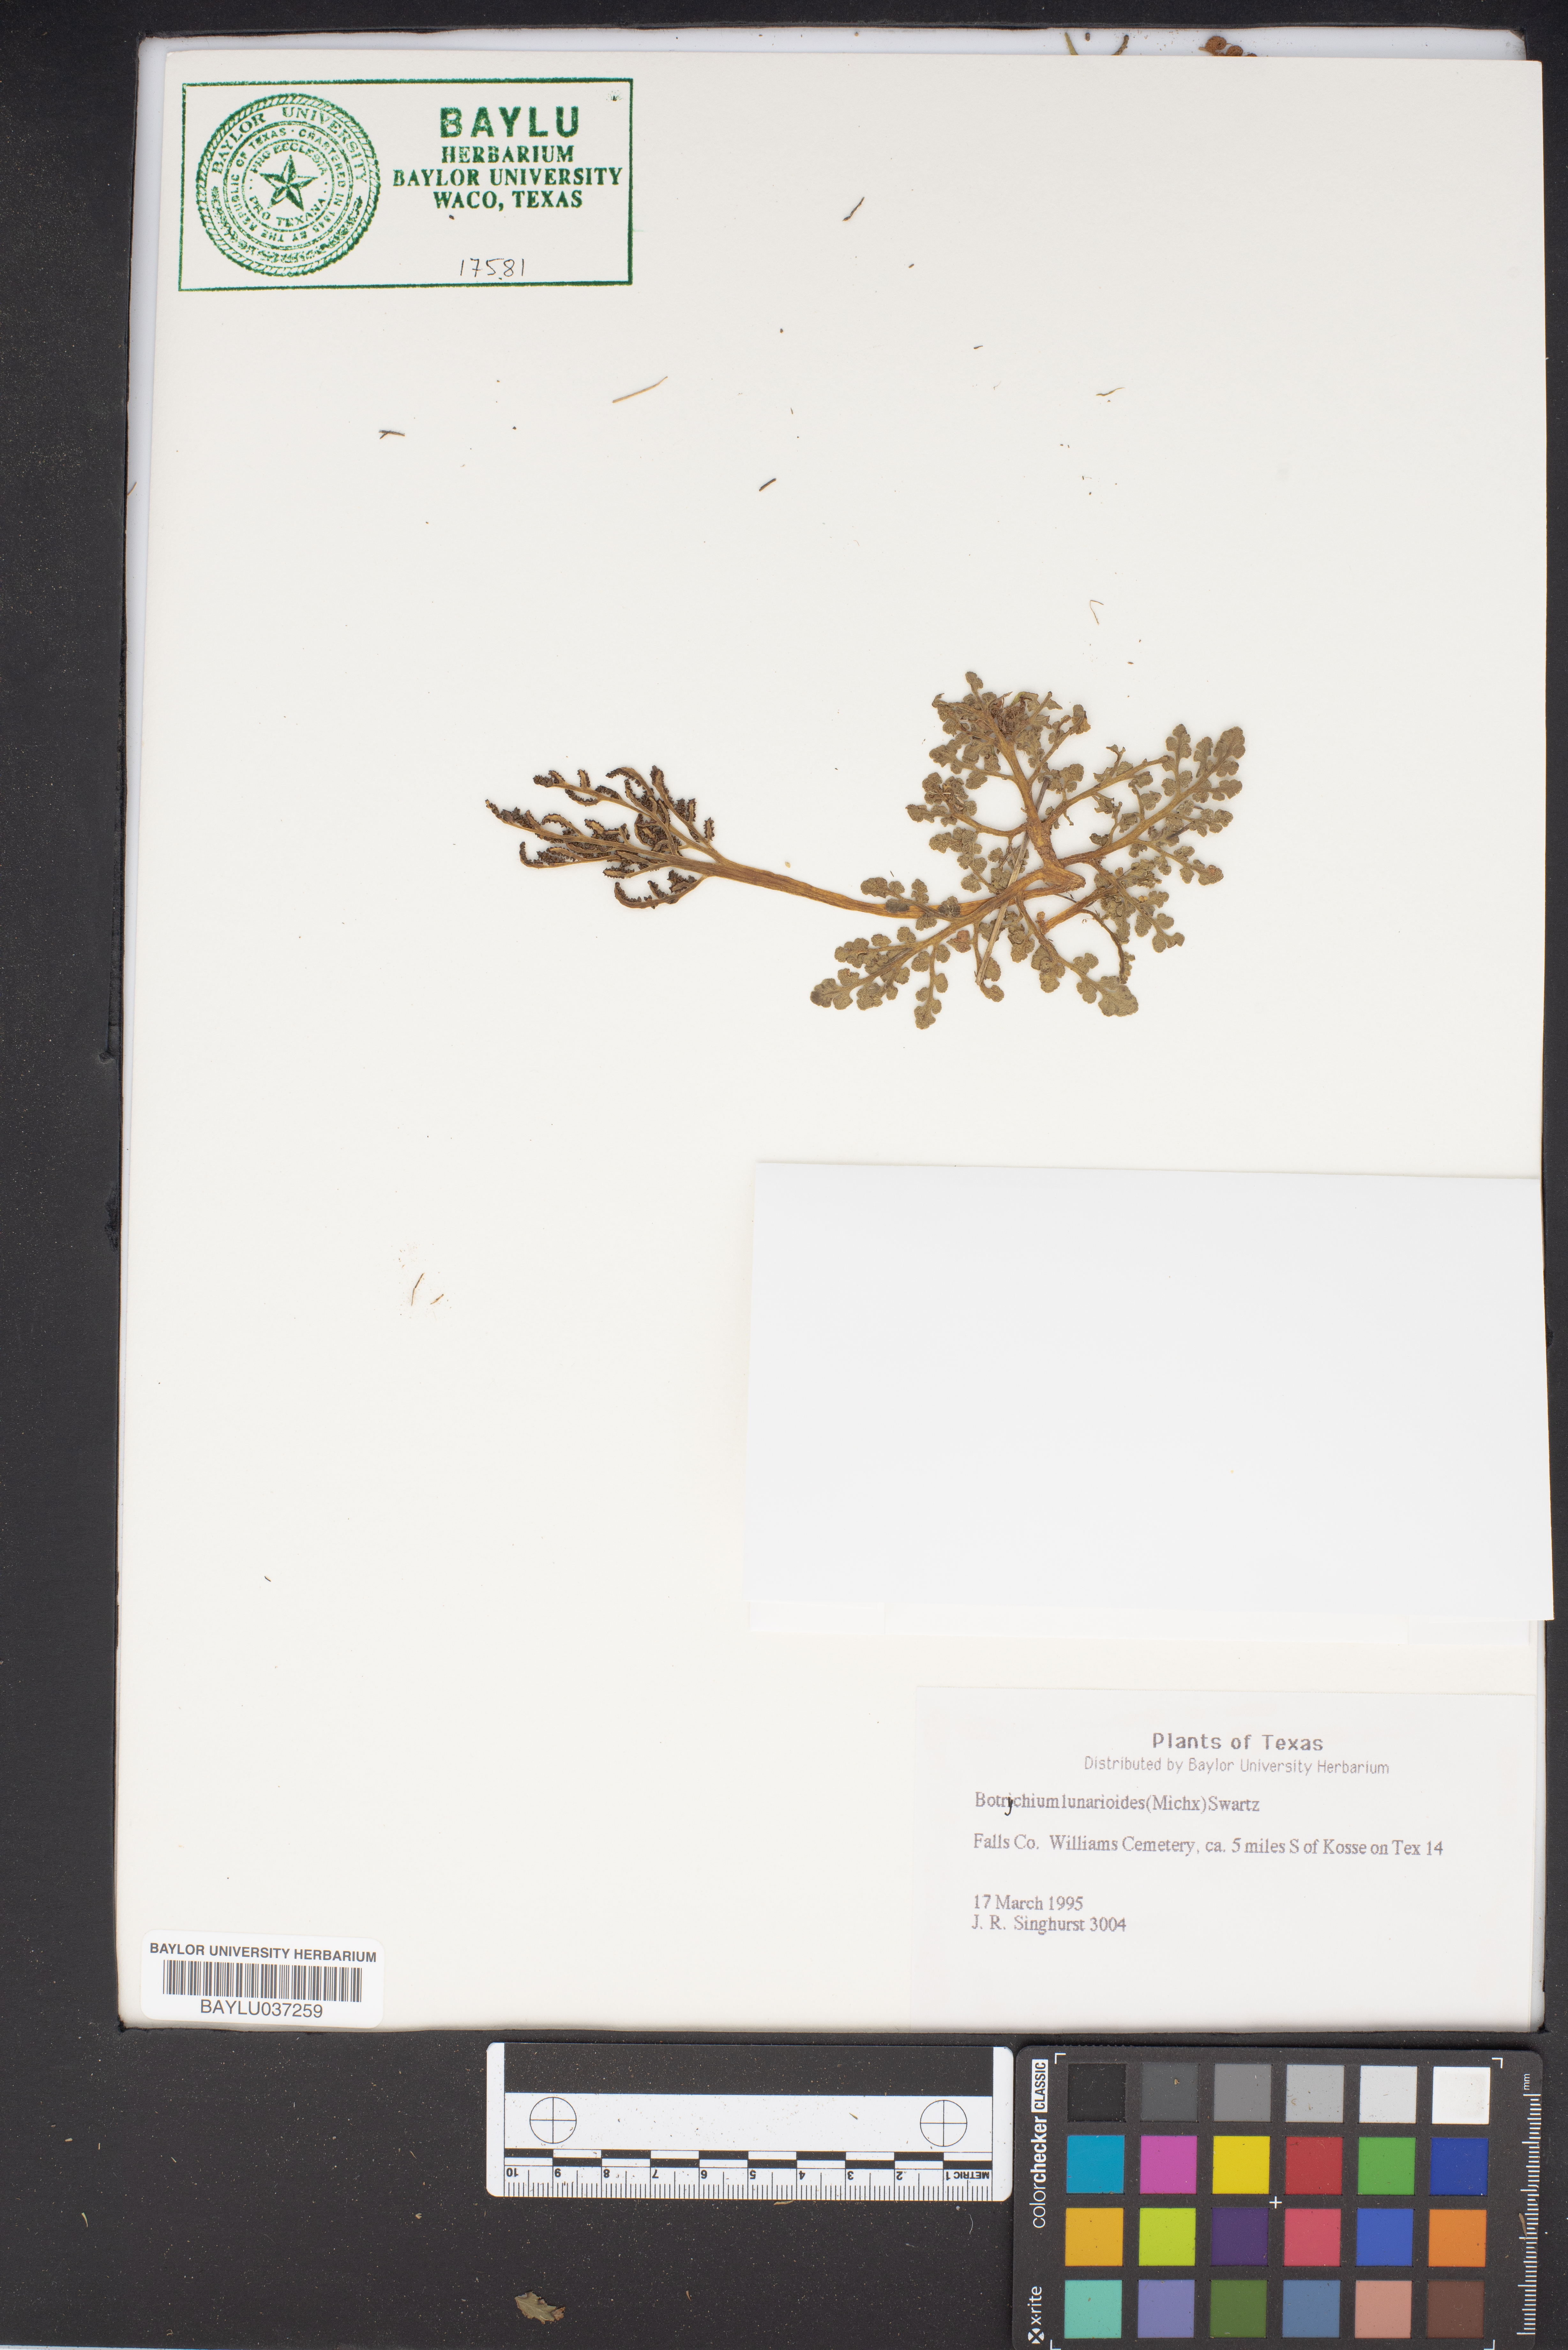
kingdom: Plantae
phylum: Tracheophyta
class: Polypodiopsida
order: Ophioglossales
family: Ophioglossaceae
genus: Sceptridium
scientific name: Sceptridium lunarioides
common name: Prostrate grapefern
